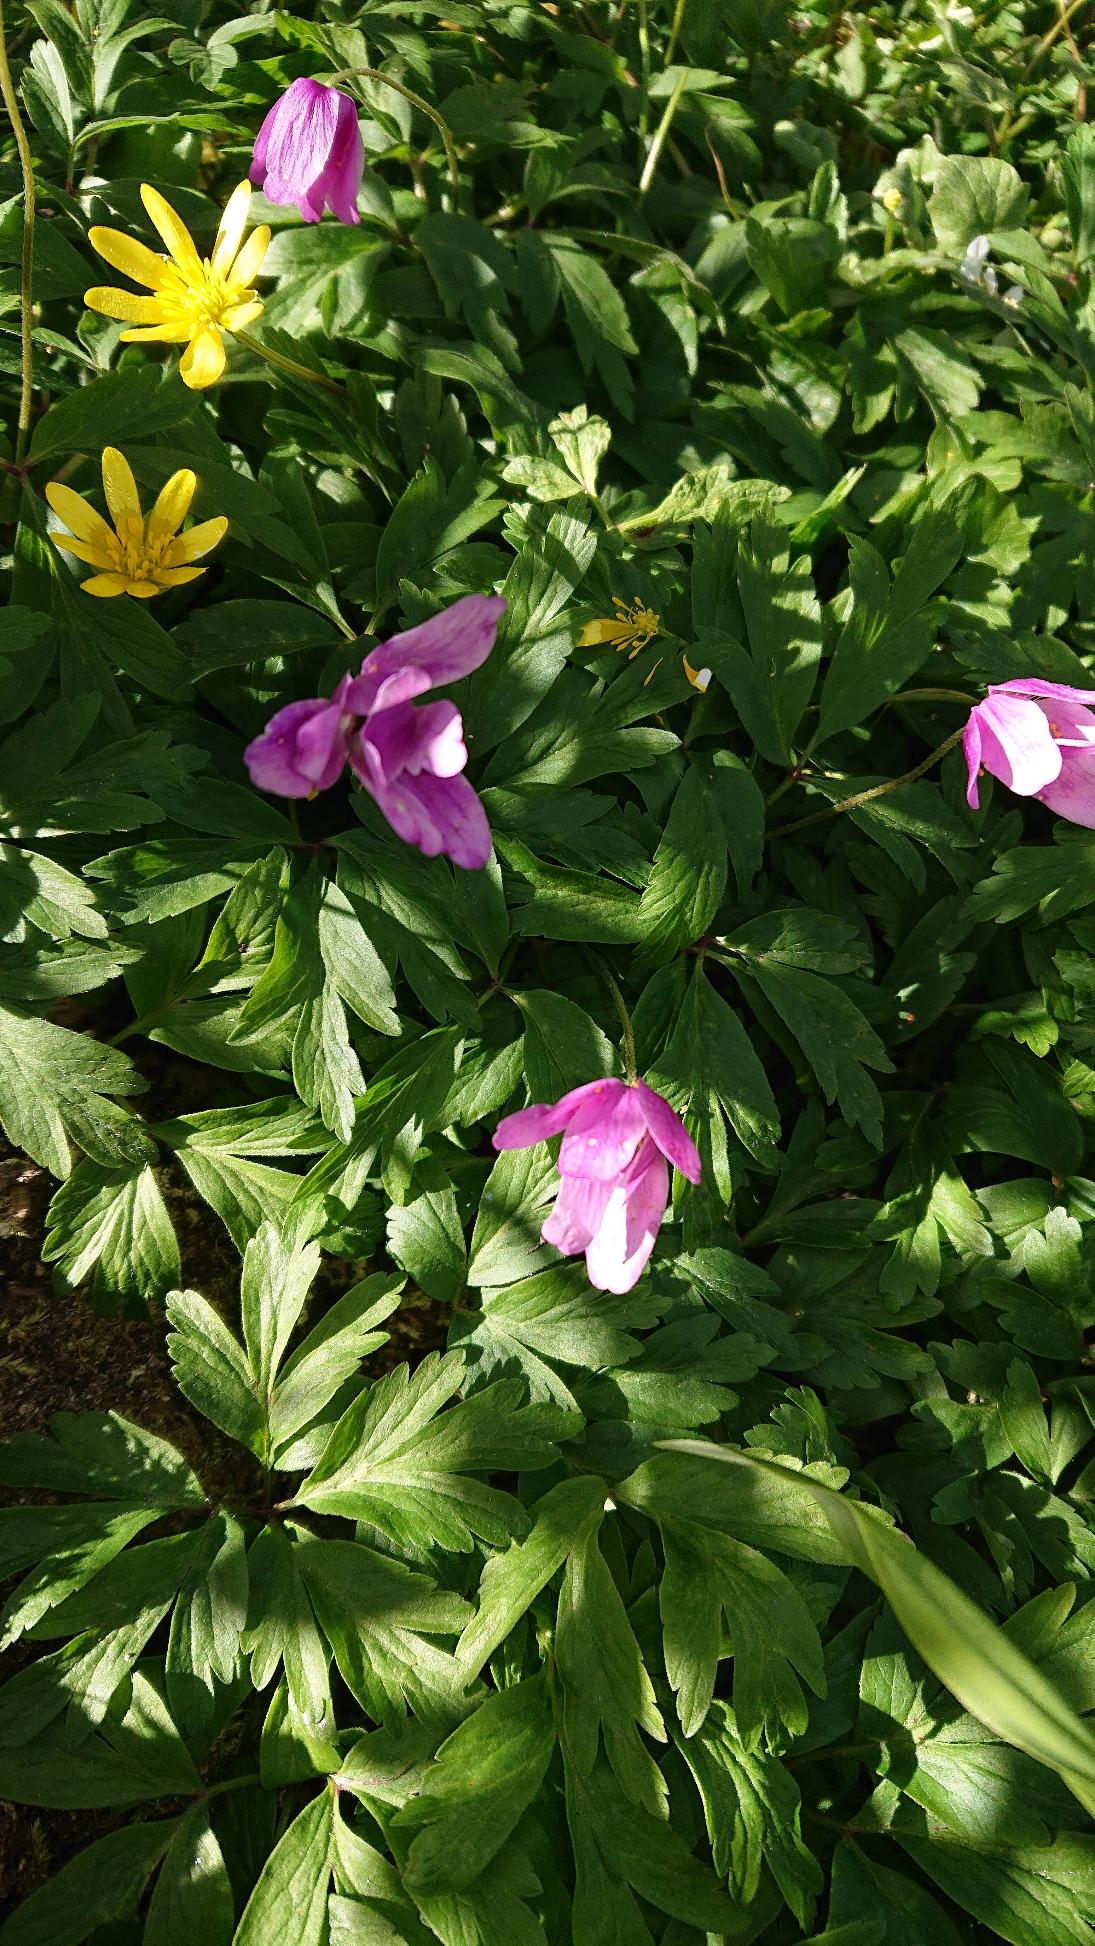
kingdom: Plantae
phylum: Tracheophyta
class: Magnoliopsida
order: Ranunculales
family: Ranunculaceae
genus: Anemone
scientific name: Anemone nemorosa
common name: Hvid anemone
